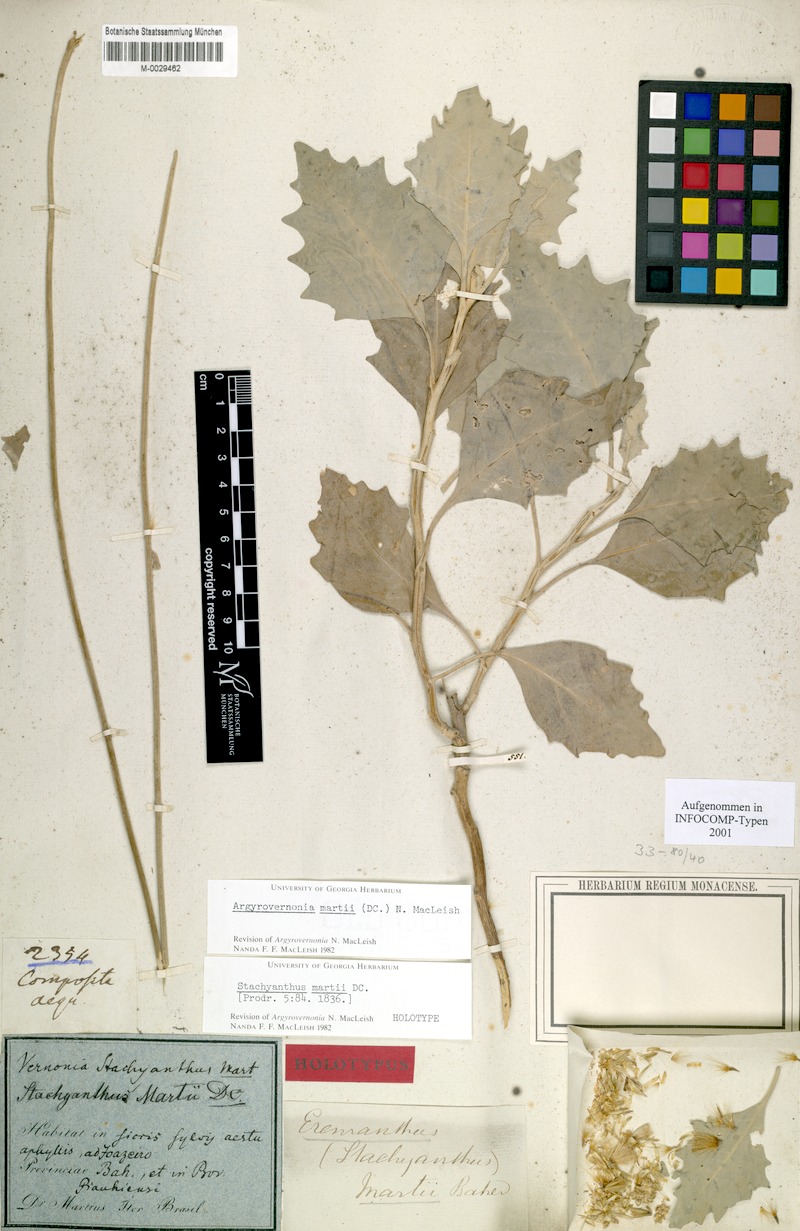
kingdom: Plantae
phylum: Tracheophyta
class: Magnoliopsida
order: Asterales
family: Asteraceae
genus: Chresta
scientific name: Chresta martii
